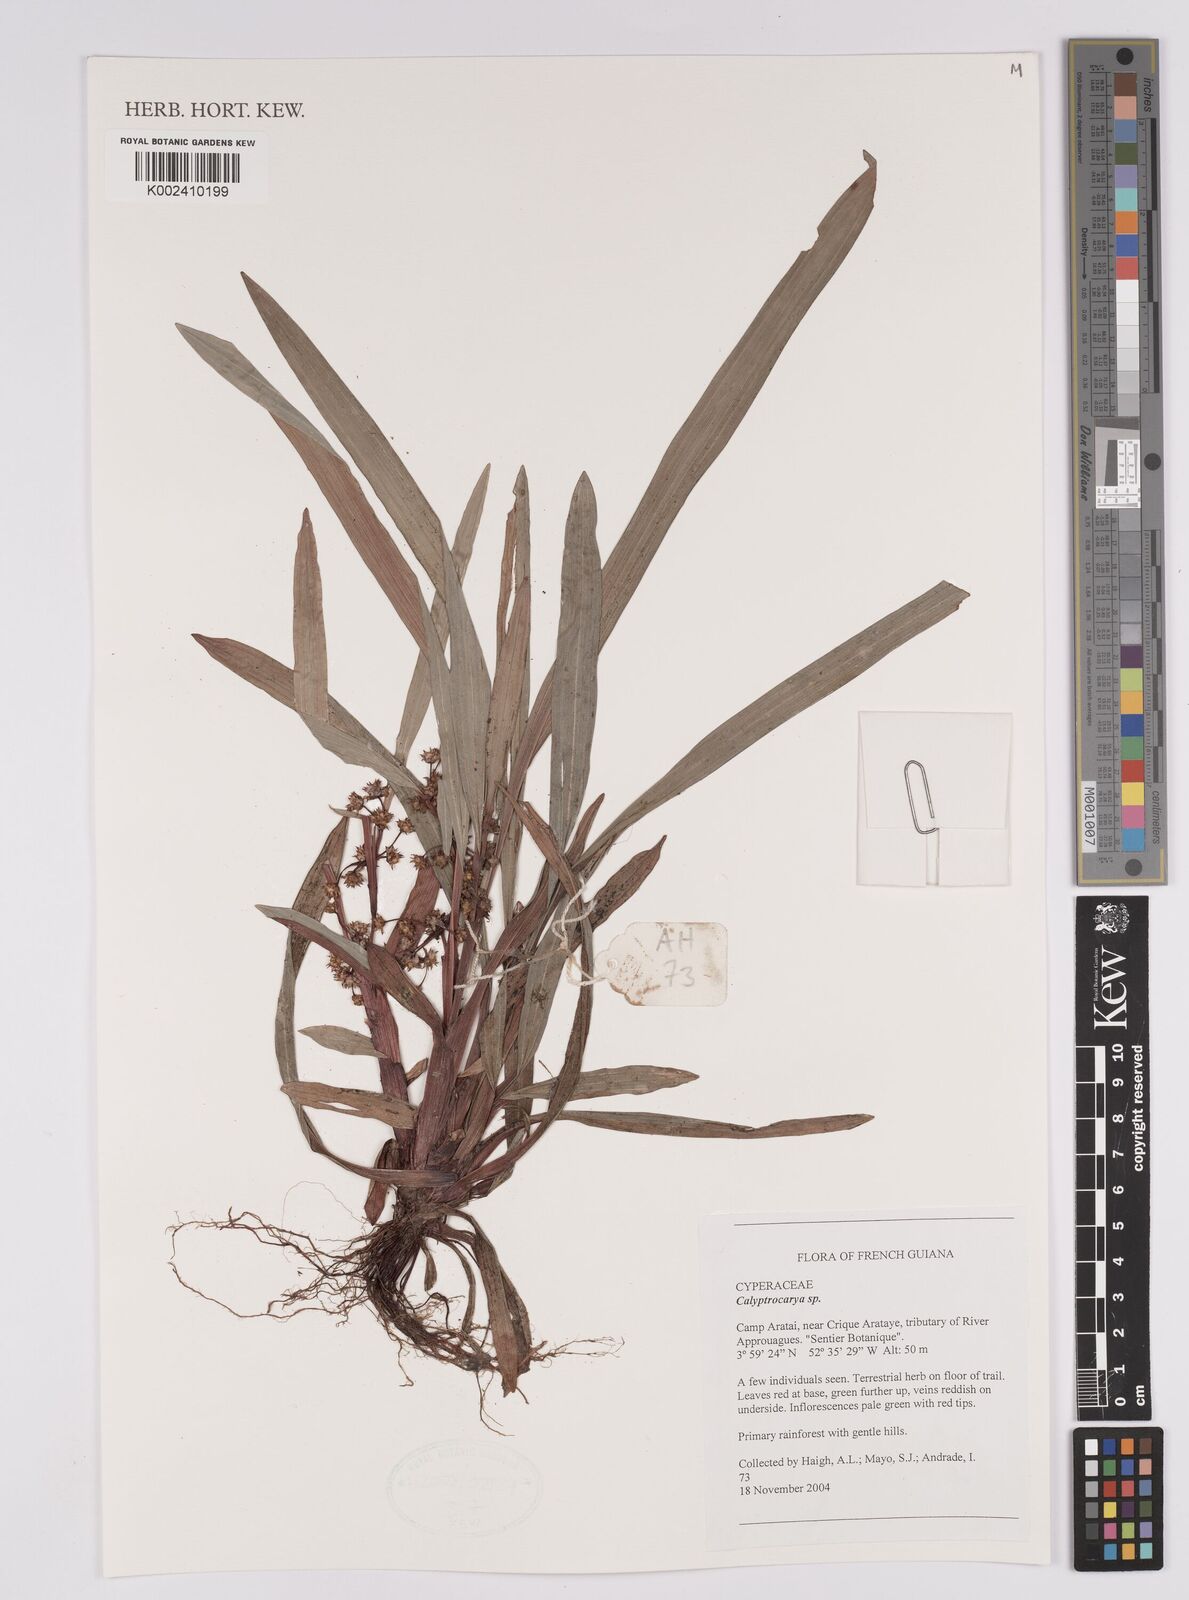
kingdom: Plantae
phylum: Tracheophyta
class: Liliopsida
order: Poales
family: Cyperaceae
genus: Calyptrocarya
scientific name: Calyptrocarya
